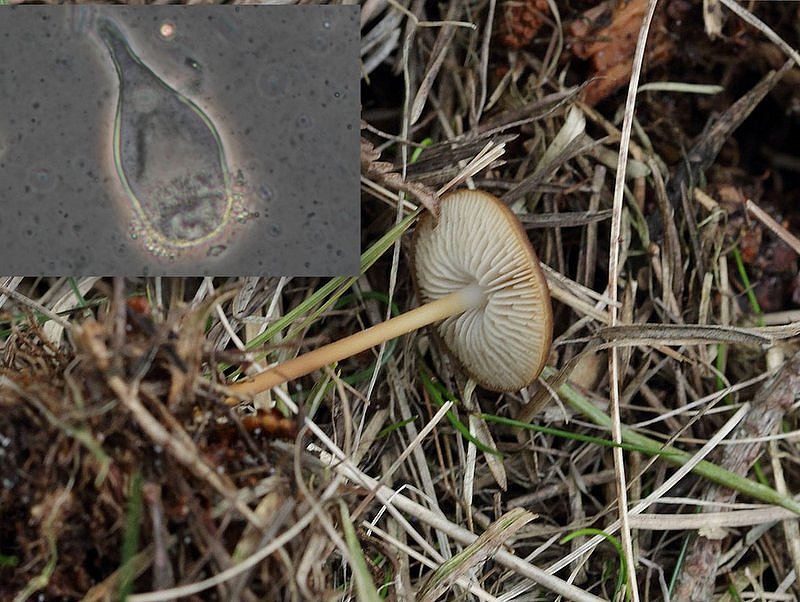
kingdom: Fungi
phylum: Basidiomycota
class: Agaricomycetes
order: Agaricales
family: Physalacriaceae
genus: Strobilurus
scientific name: Strobilurus stephanocystis
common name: fyrre-koglehat
